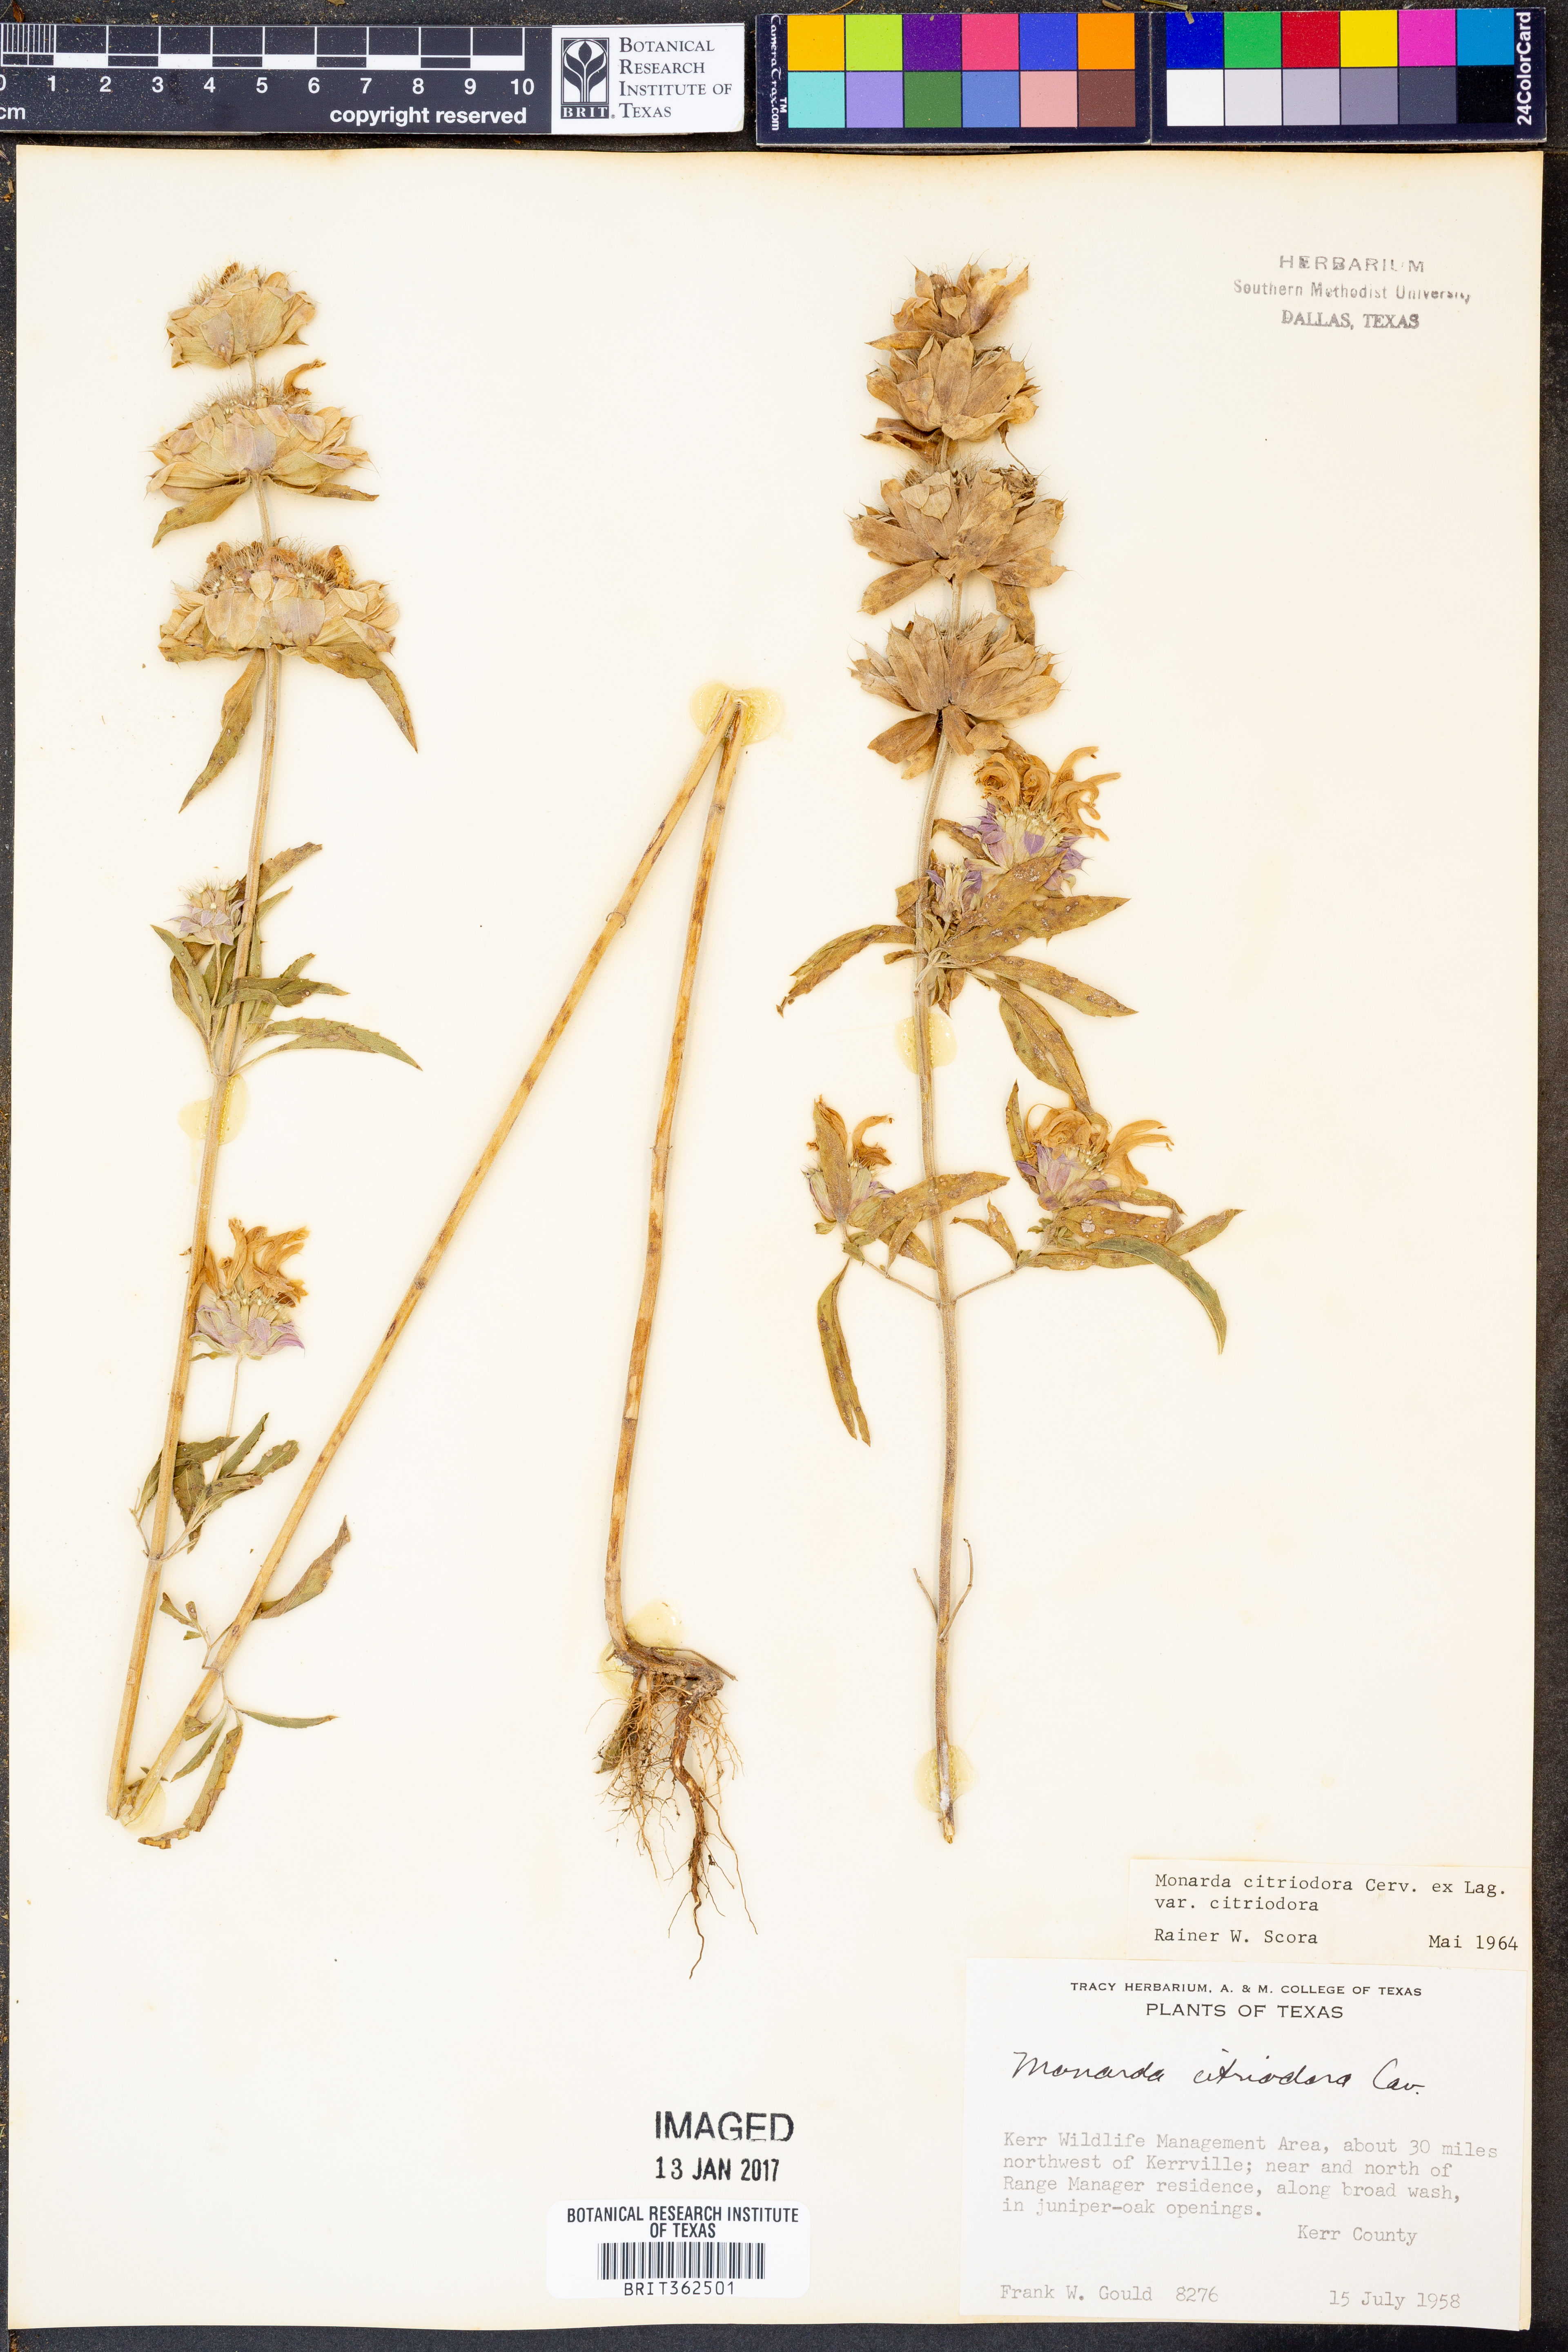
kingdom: Plantae
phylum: Tracheophyta
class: Magnoliopsida
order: Lamiales
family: Lamiaceae
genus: Monarda
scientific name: Monarda citriodora
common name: Lemon beebalm
